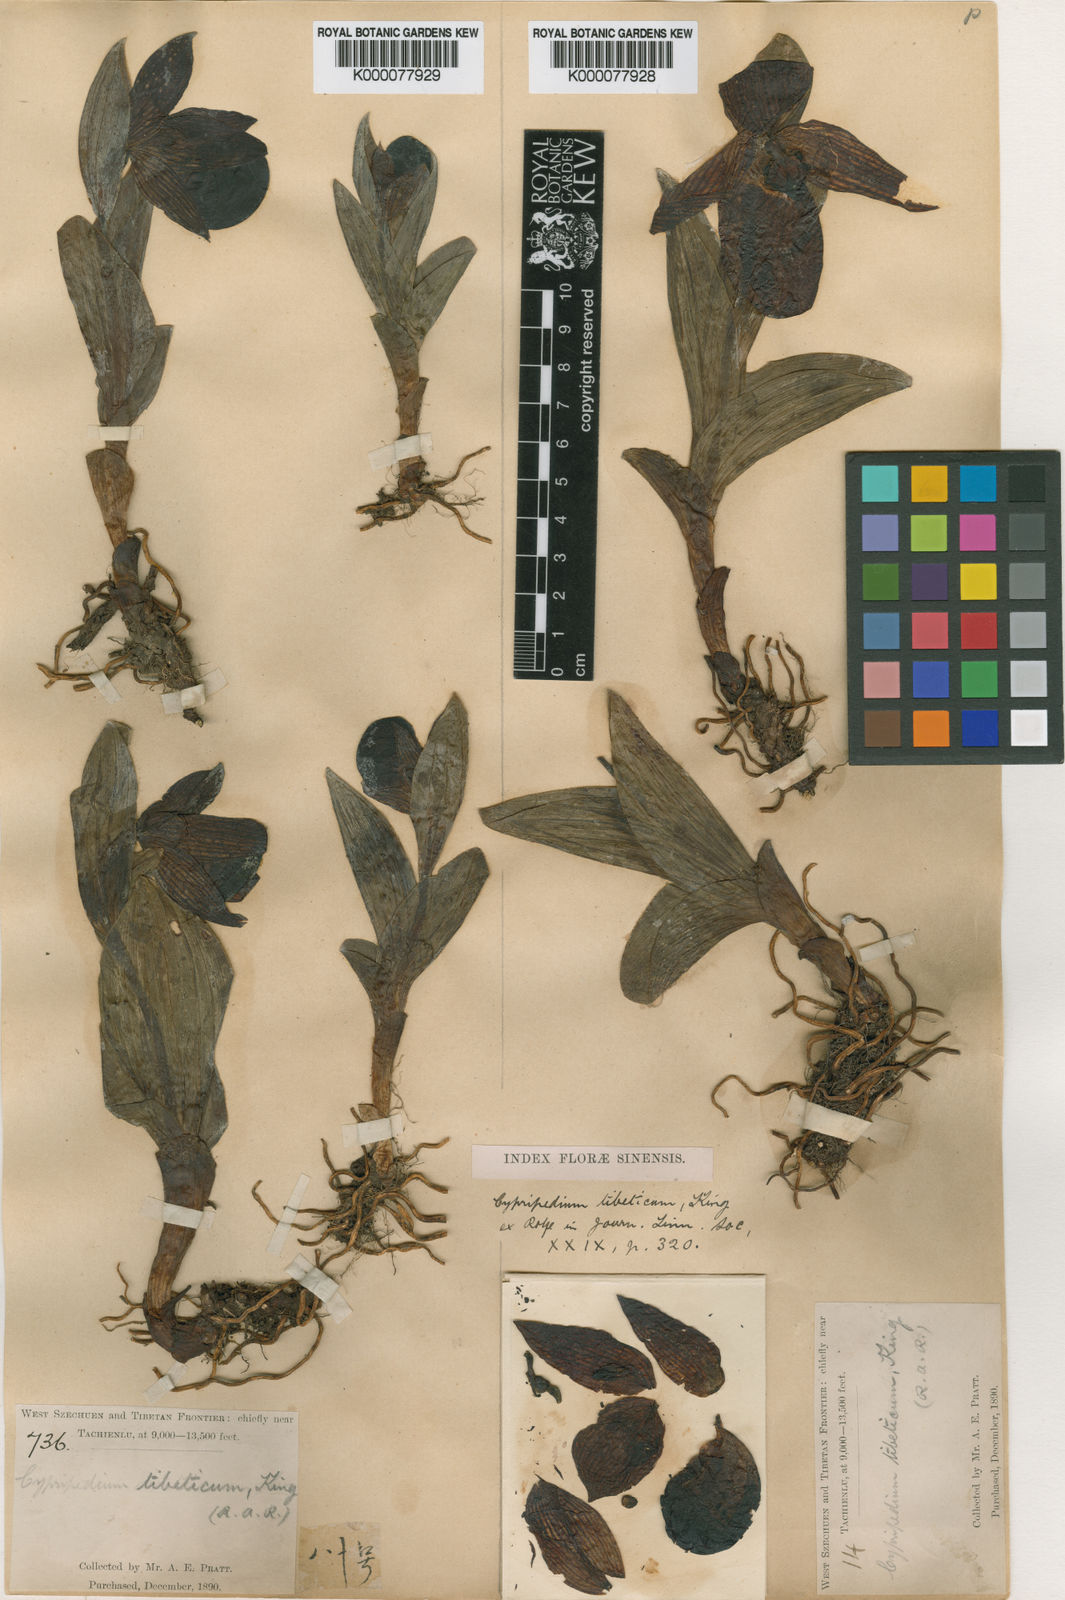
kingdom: Plantae
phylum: Tracheophyta
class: Liliopsida
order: Asparagales
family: Orchidaceae
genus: Cypripedium
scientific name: Cypripedium tibeticum
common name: Tibetan cypripedium
